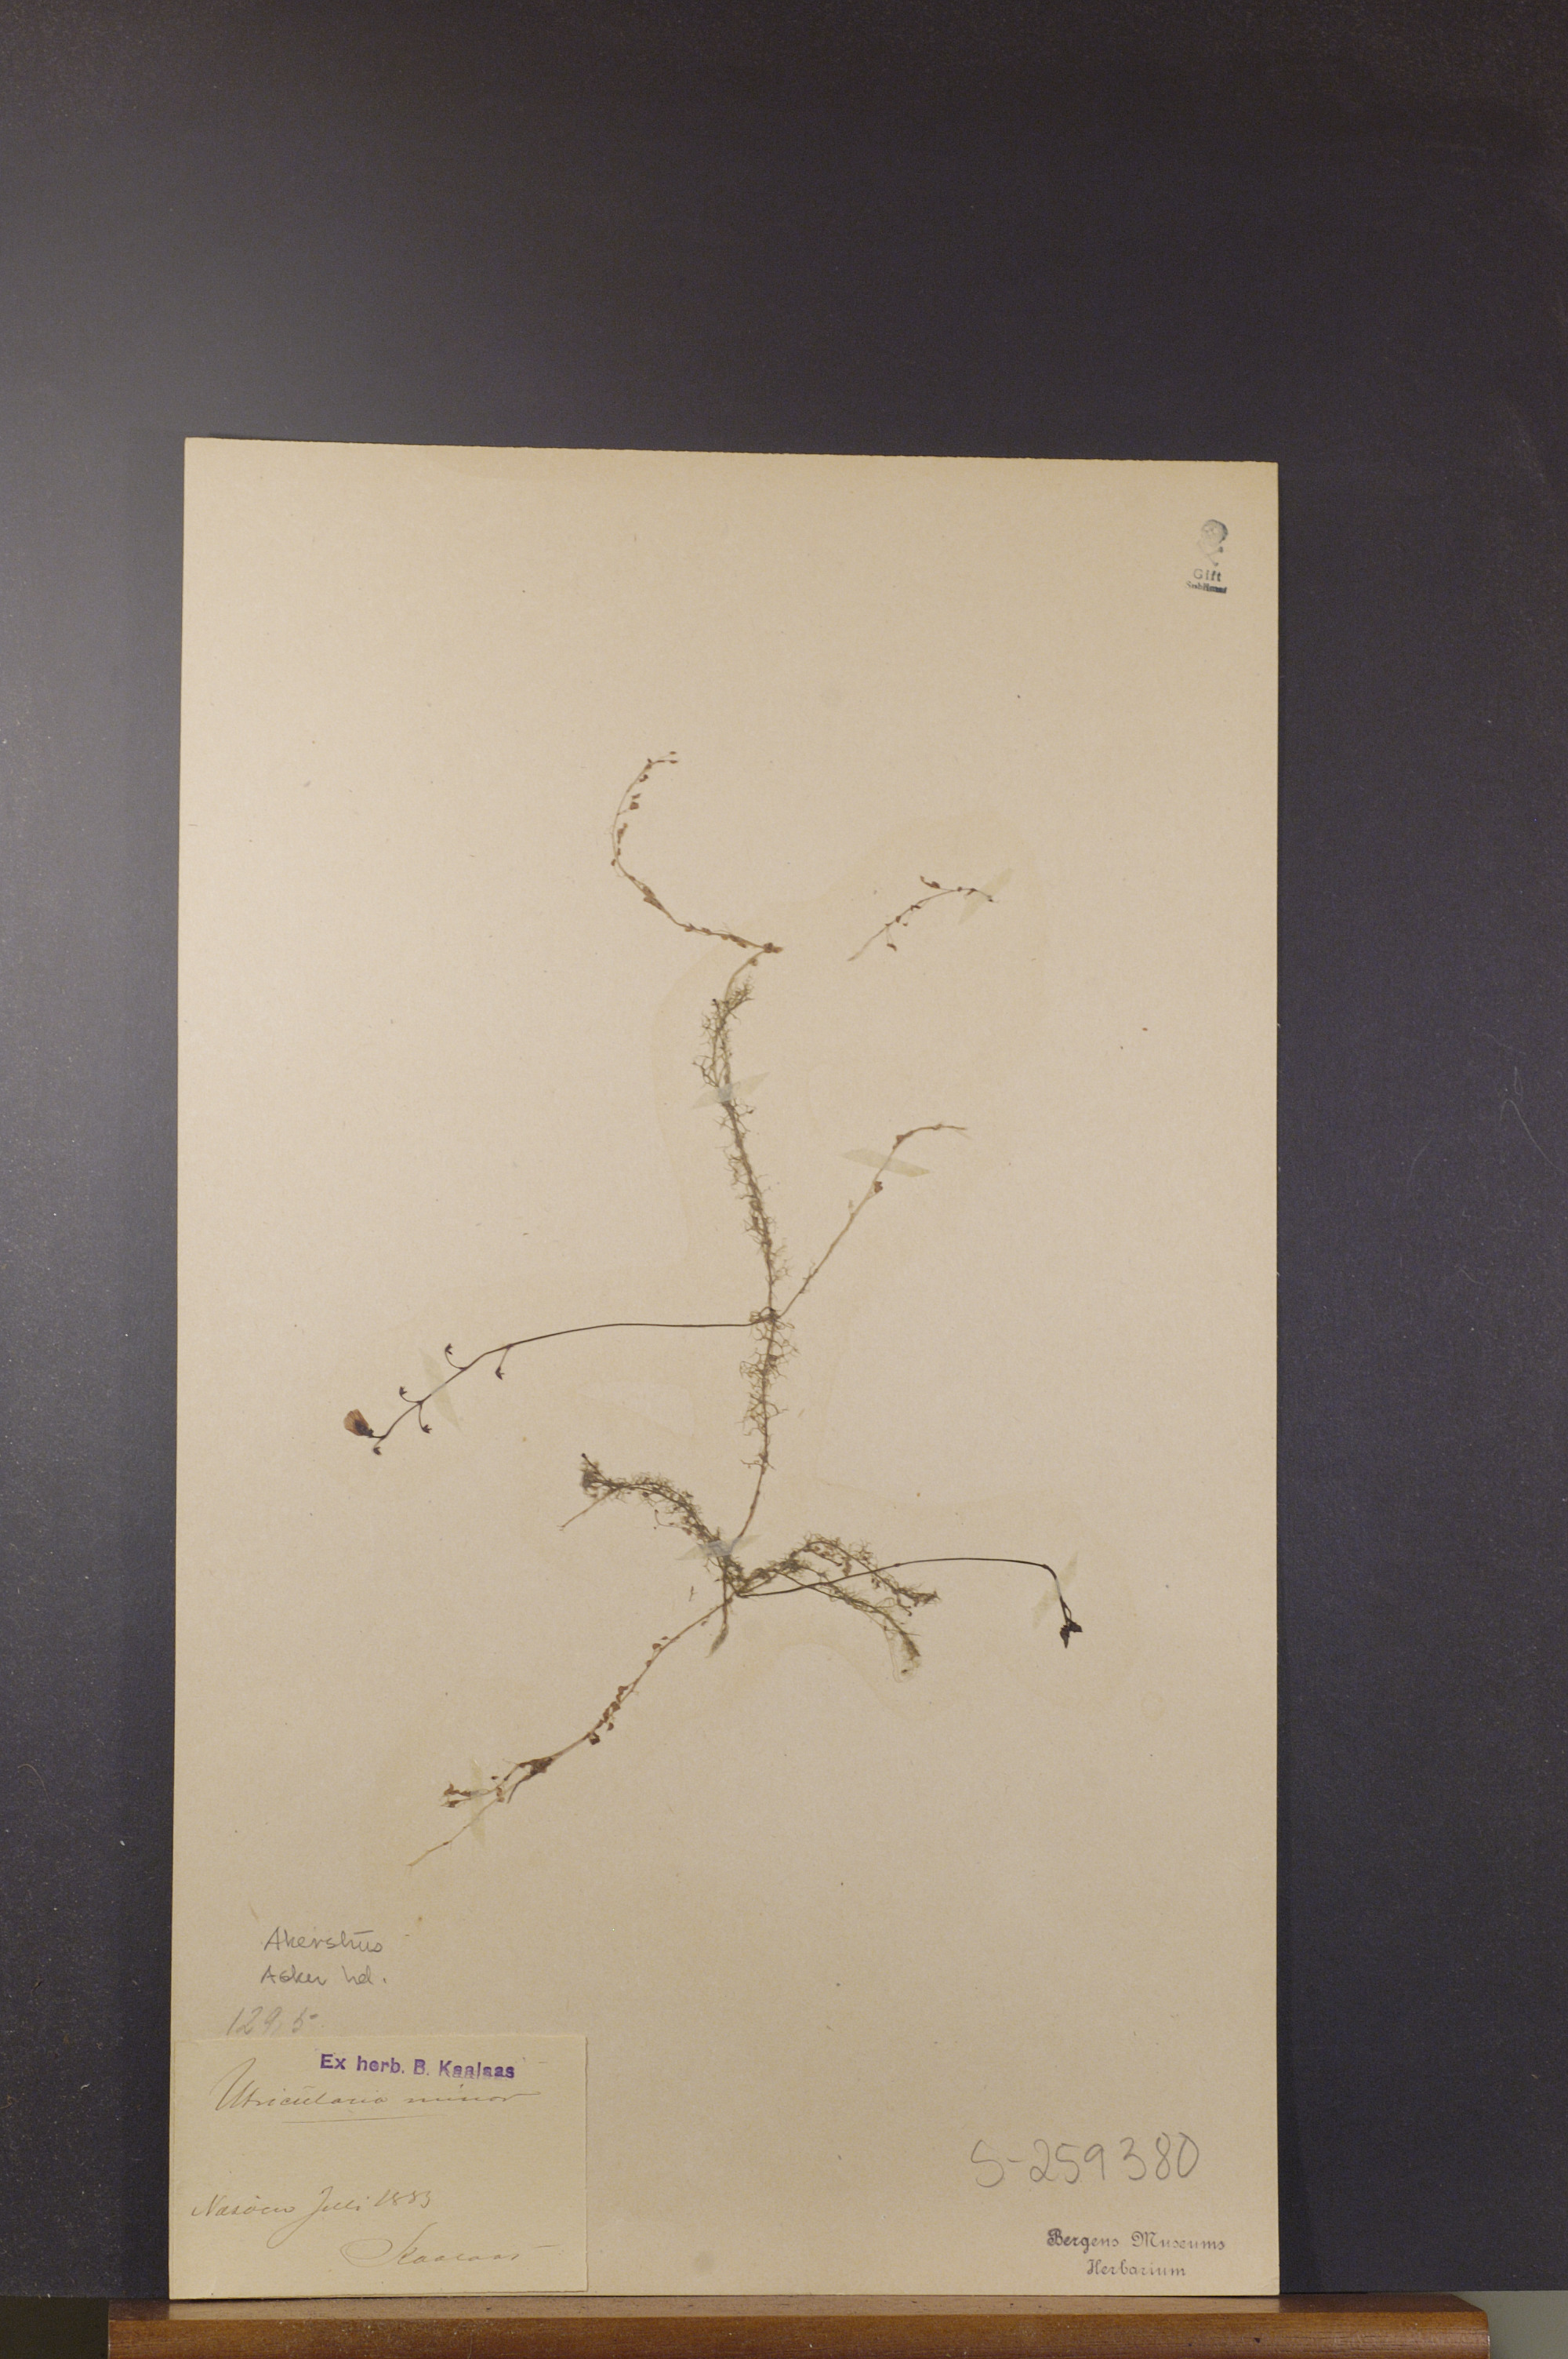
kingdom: Plantae
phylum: Tracheophyta
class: Magnoliopsida
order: Lamiales
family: Lentibulariaceae
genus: Utricularia
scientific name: Utricularia minor
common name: Lesser bladderwort
